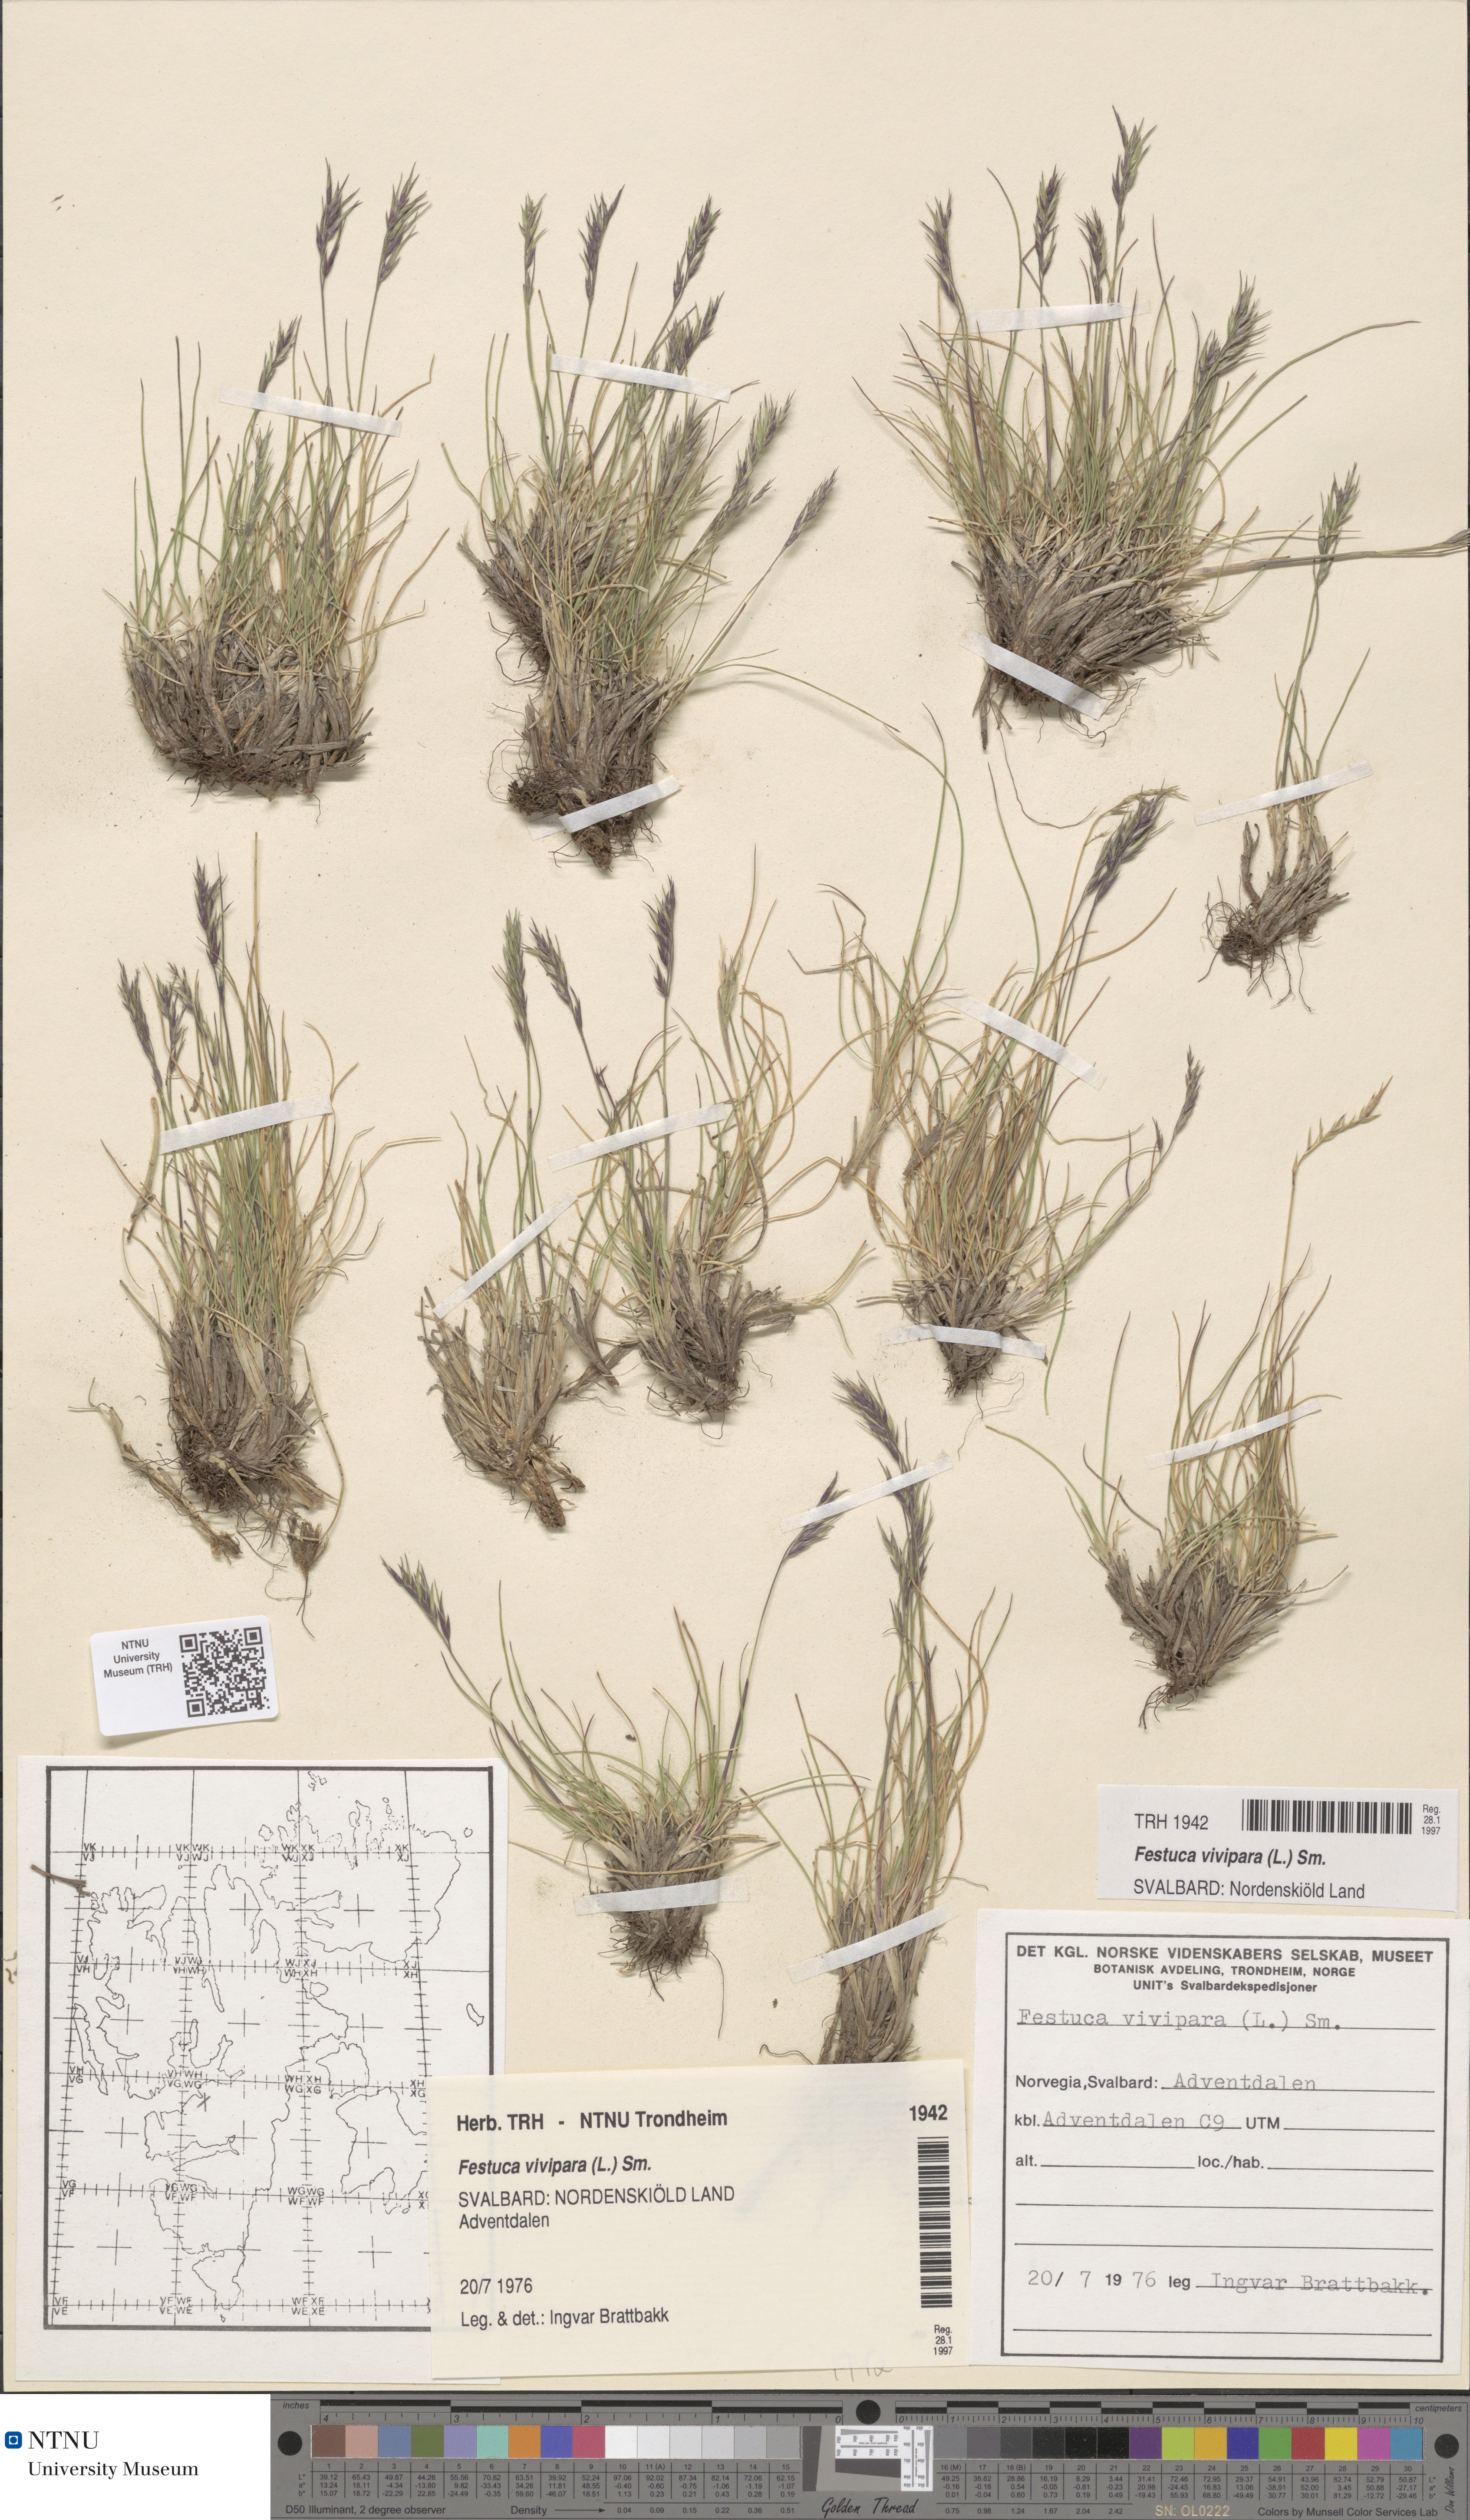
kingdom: Plantae
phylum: Tracheophyta
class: Liliopsida
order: Poales
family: Poaceae
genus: Festuca
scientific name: Festuca viviparoidea
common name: Northern fescue
